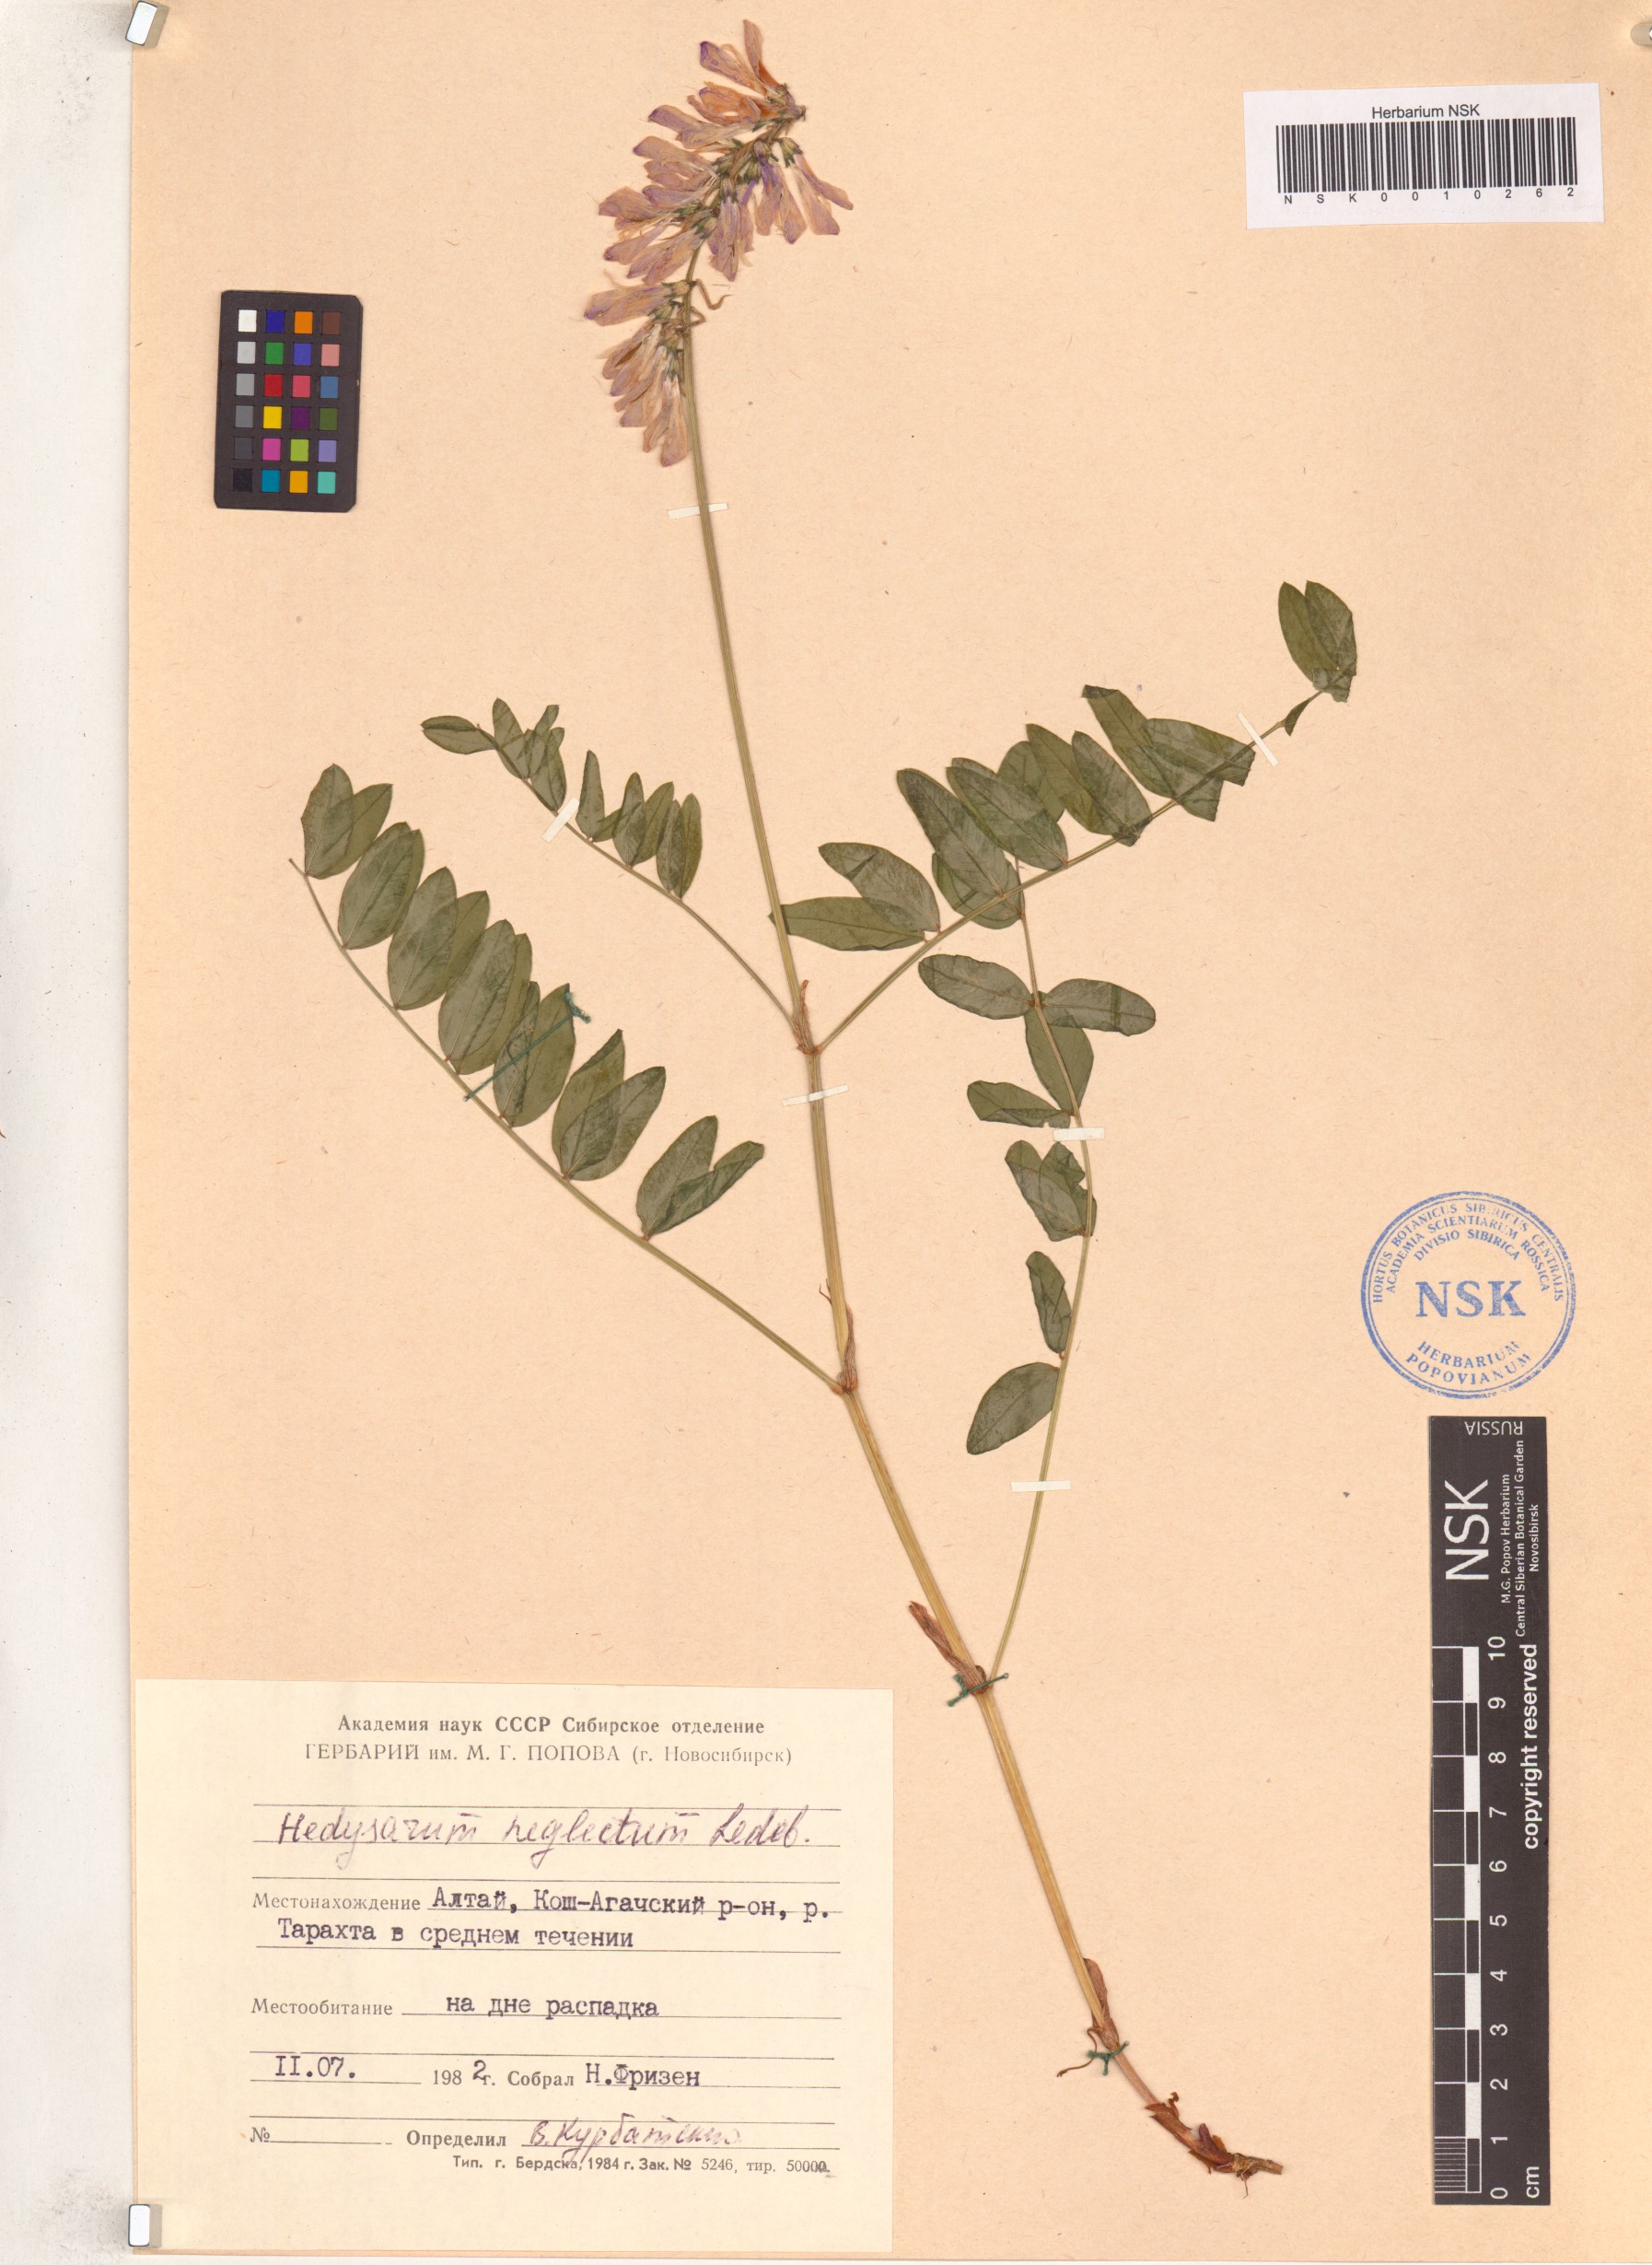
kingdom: Plantae
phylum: Tracheophyta
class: Magnoliopsida
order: Fabales
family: Fabaceae
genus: Hedysarum
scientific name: Hedysarum neglectum
